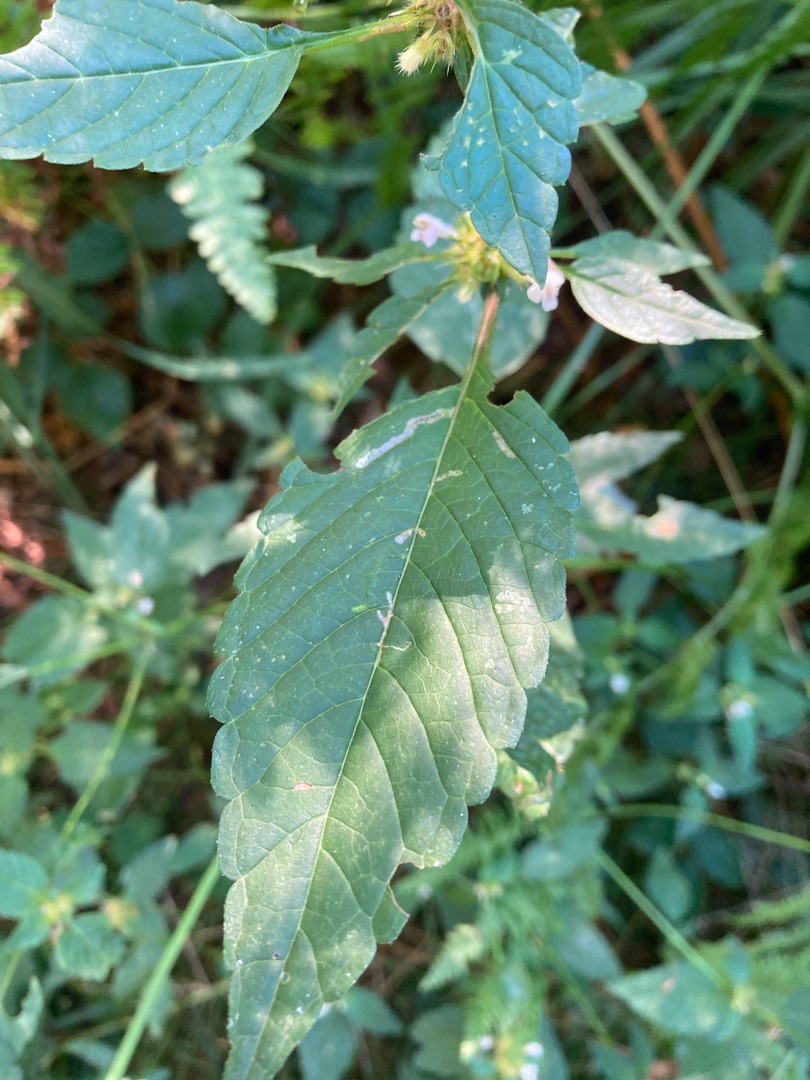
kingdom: Plantae
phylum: Tracheophyta
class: Magnoliopsida
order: Lamiales
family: Lamiaceae
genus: Galeopsis
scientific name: Galeopsis bifida
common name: Skov-hanekro
